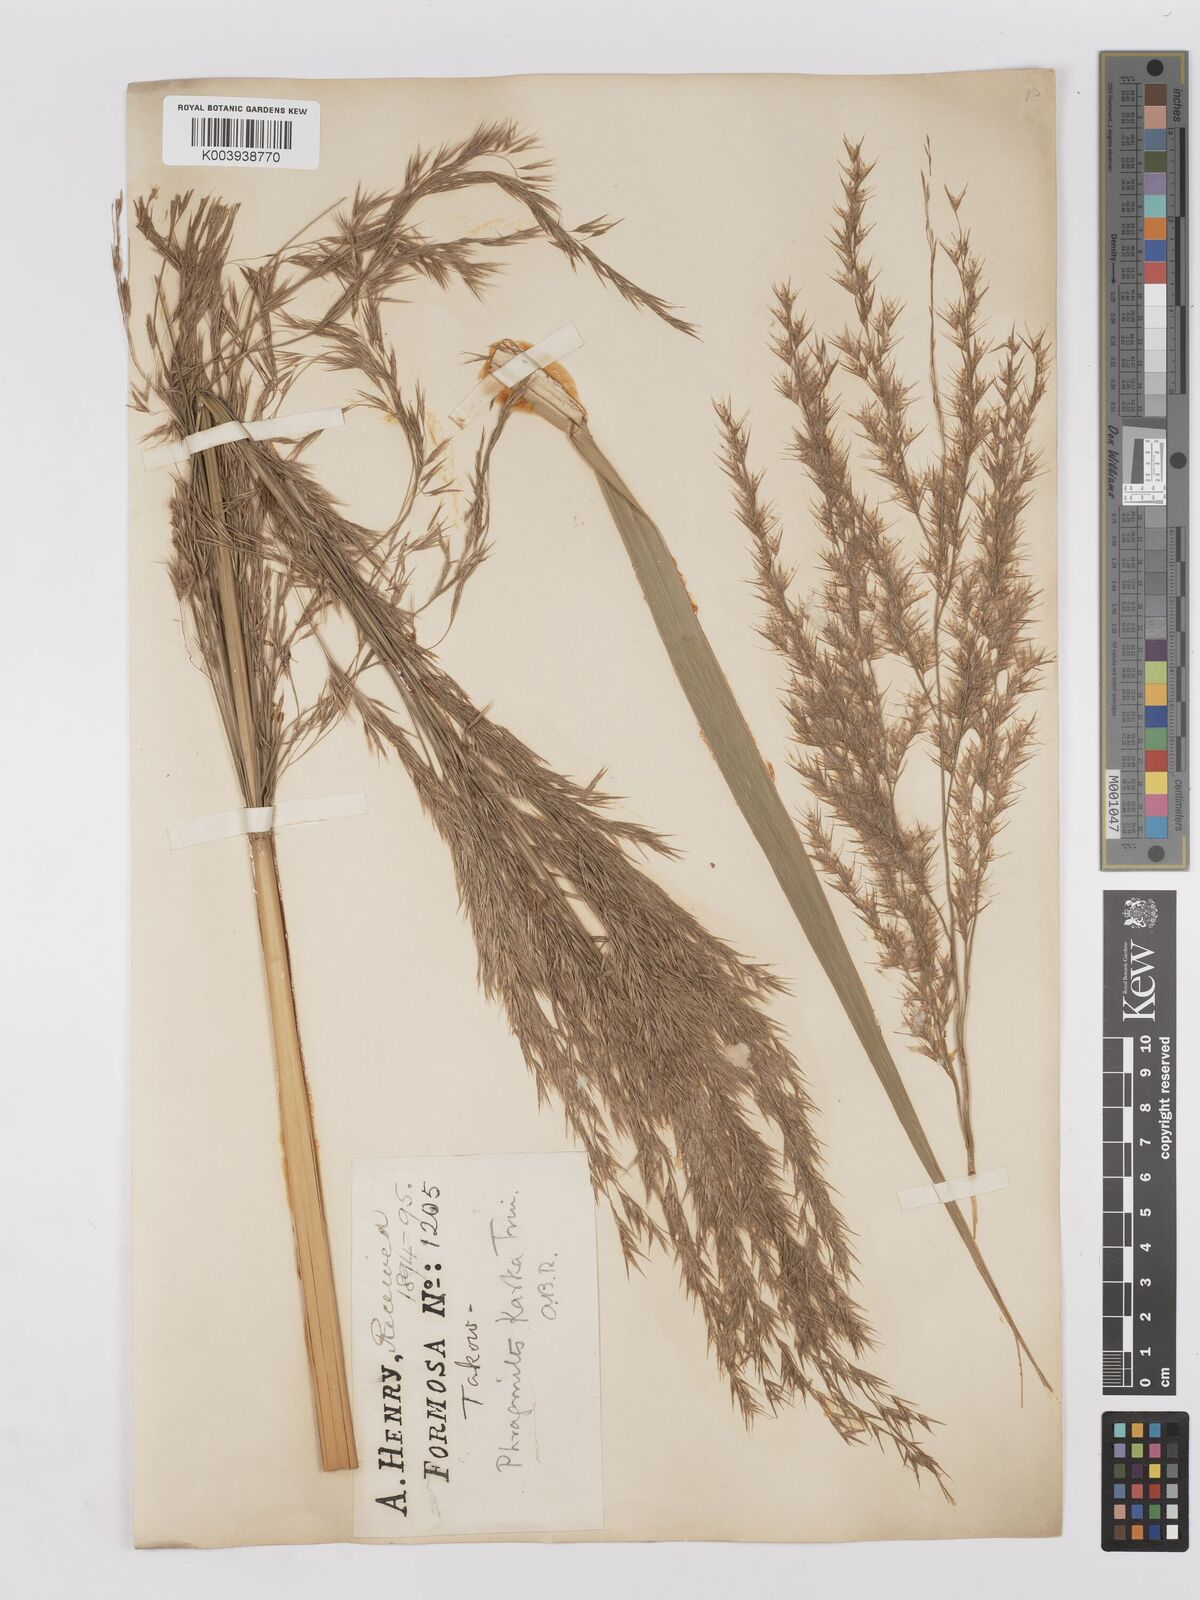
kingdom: Plantae
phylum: Tracheophyta
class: Liliopsida
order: Poales
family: Poaceae
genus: Phragmites
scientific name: Phragmites karka
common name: Tropical reed
